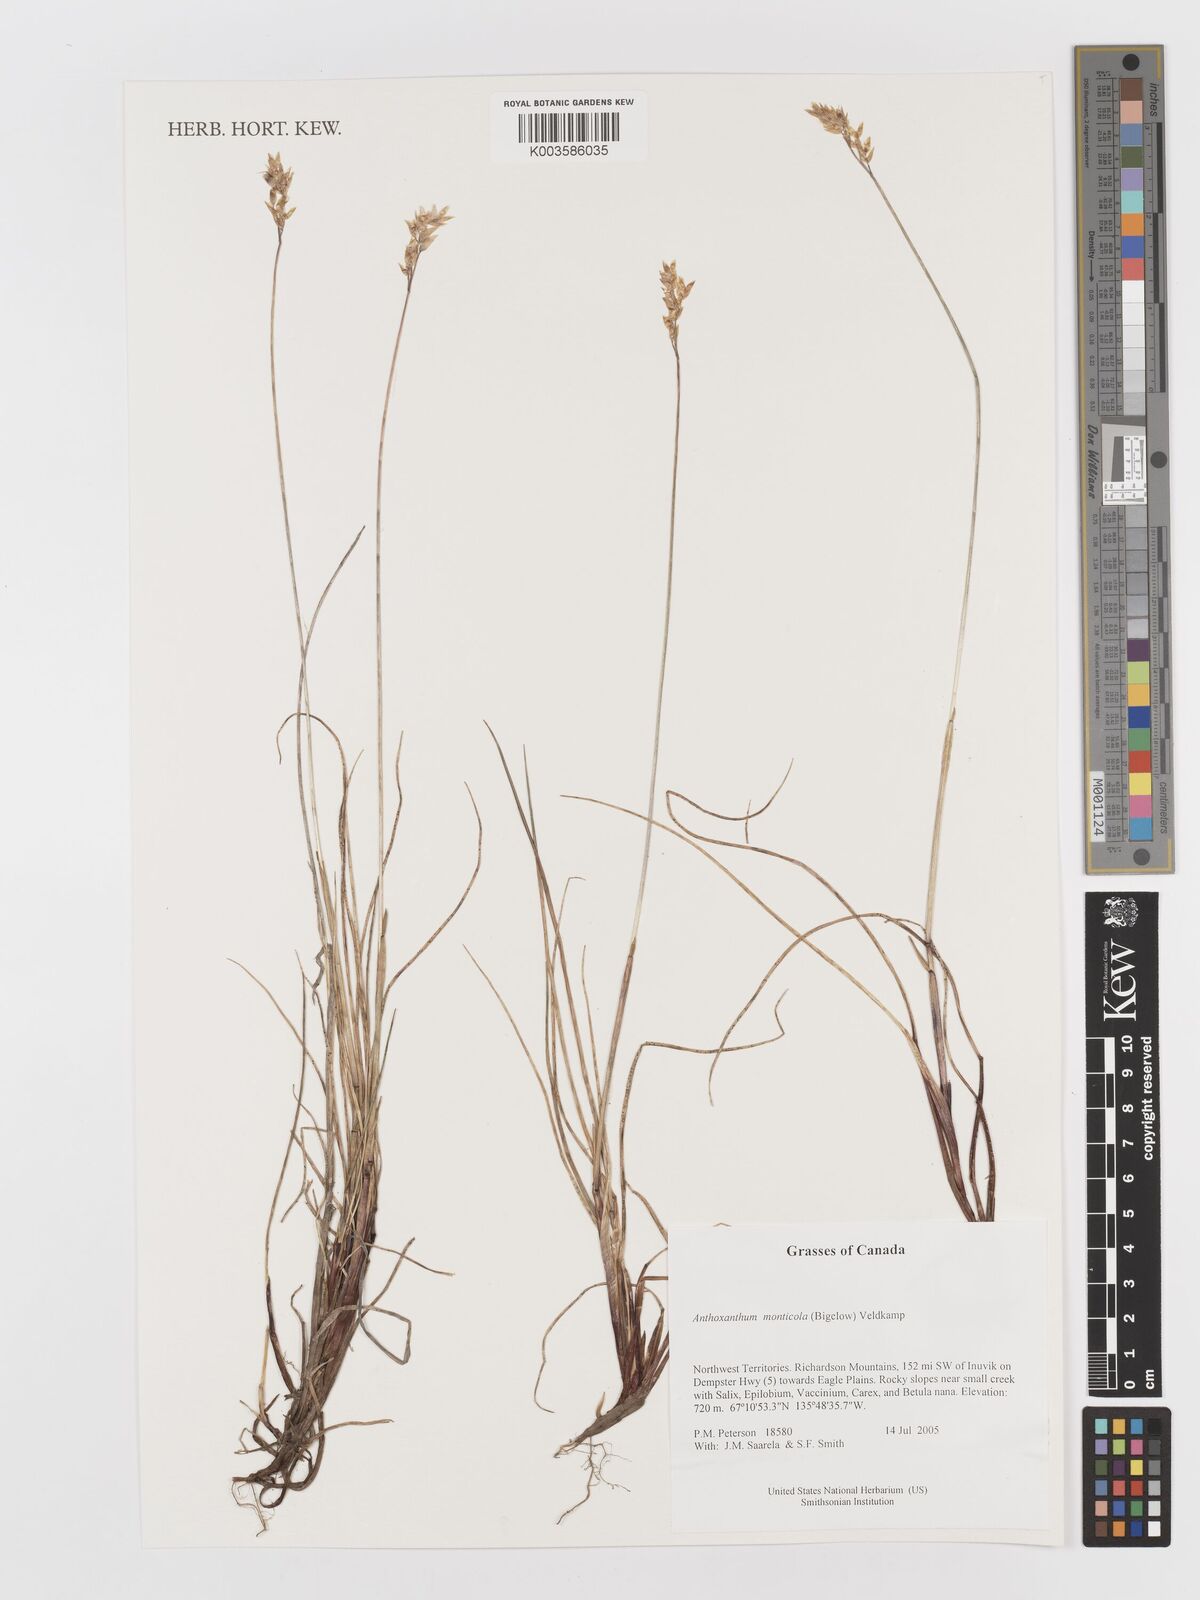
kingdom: Plantae
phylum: Tracheophyta
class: Liliopsida
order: Poales
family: Poaceae
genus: Anthoxanthum
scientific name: Anthoxanthum monticola
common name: Alpine sweetgrass
